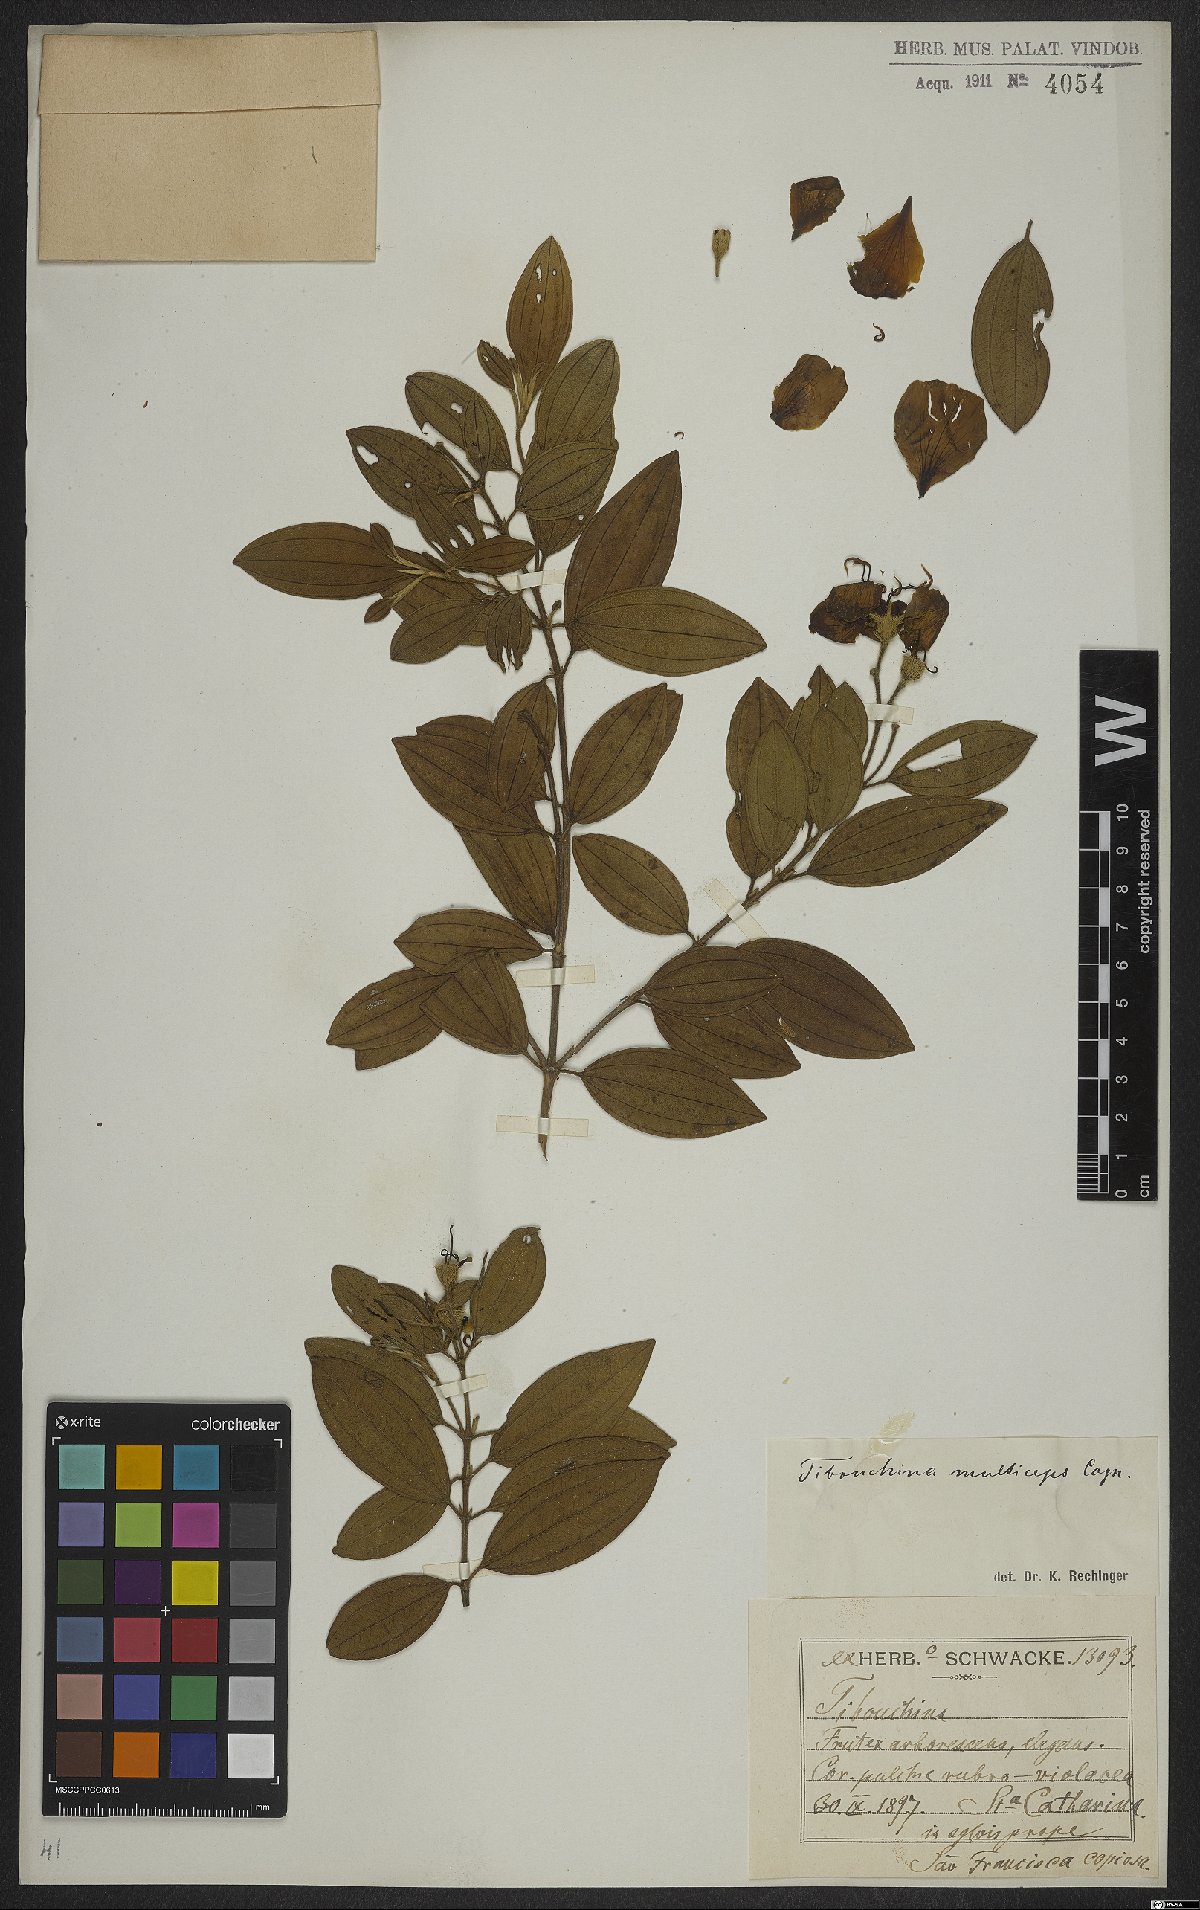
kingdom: Plantae
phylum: Tracheophyta
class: Magnoliopsida
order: Myrtales
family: Melastomataceae
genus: Pleroma
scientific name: Pleroma trichopodum
